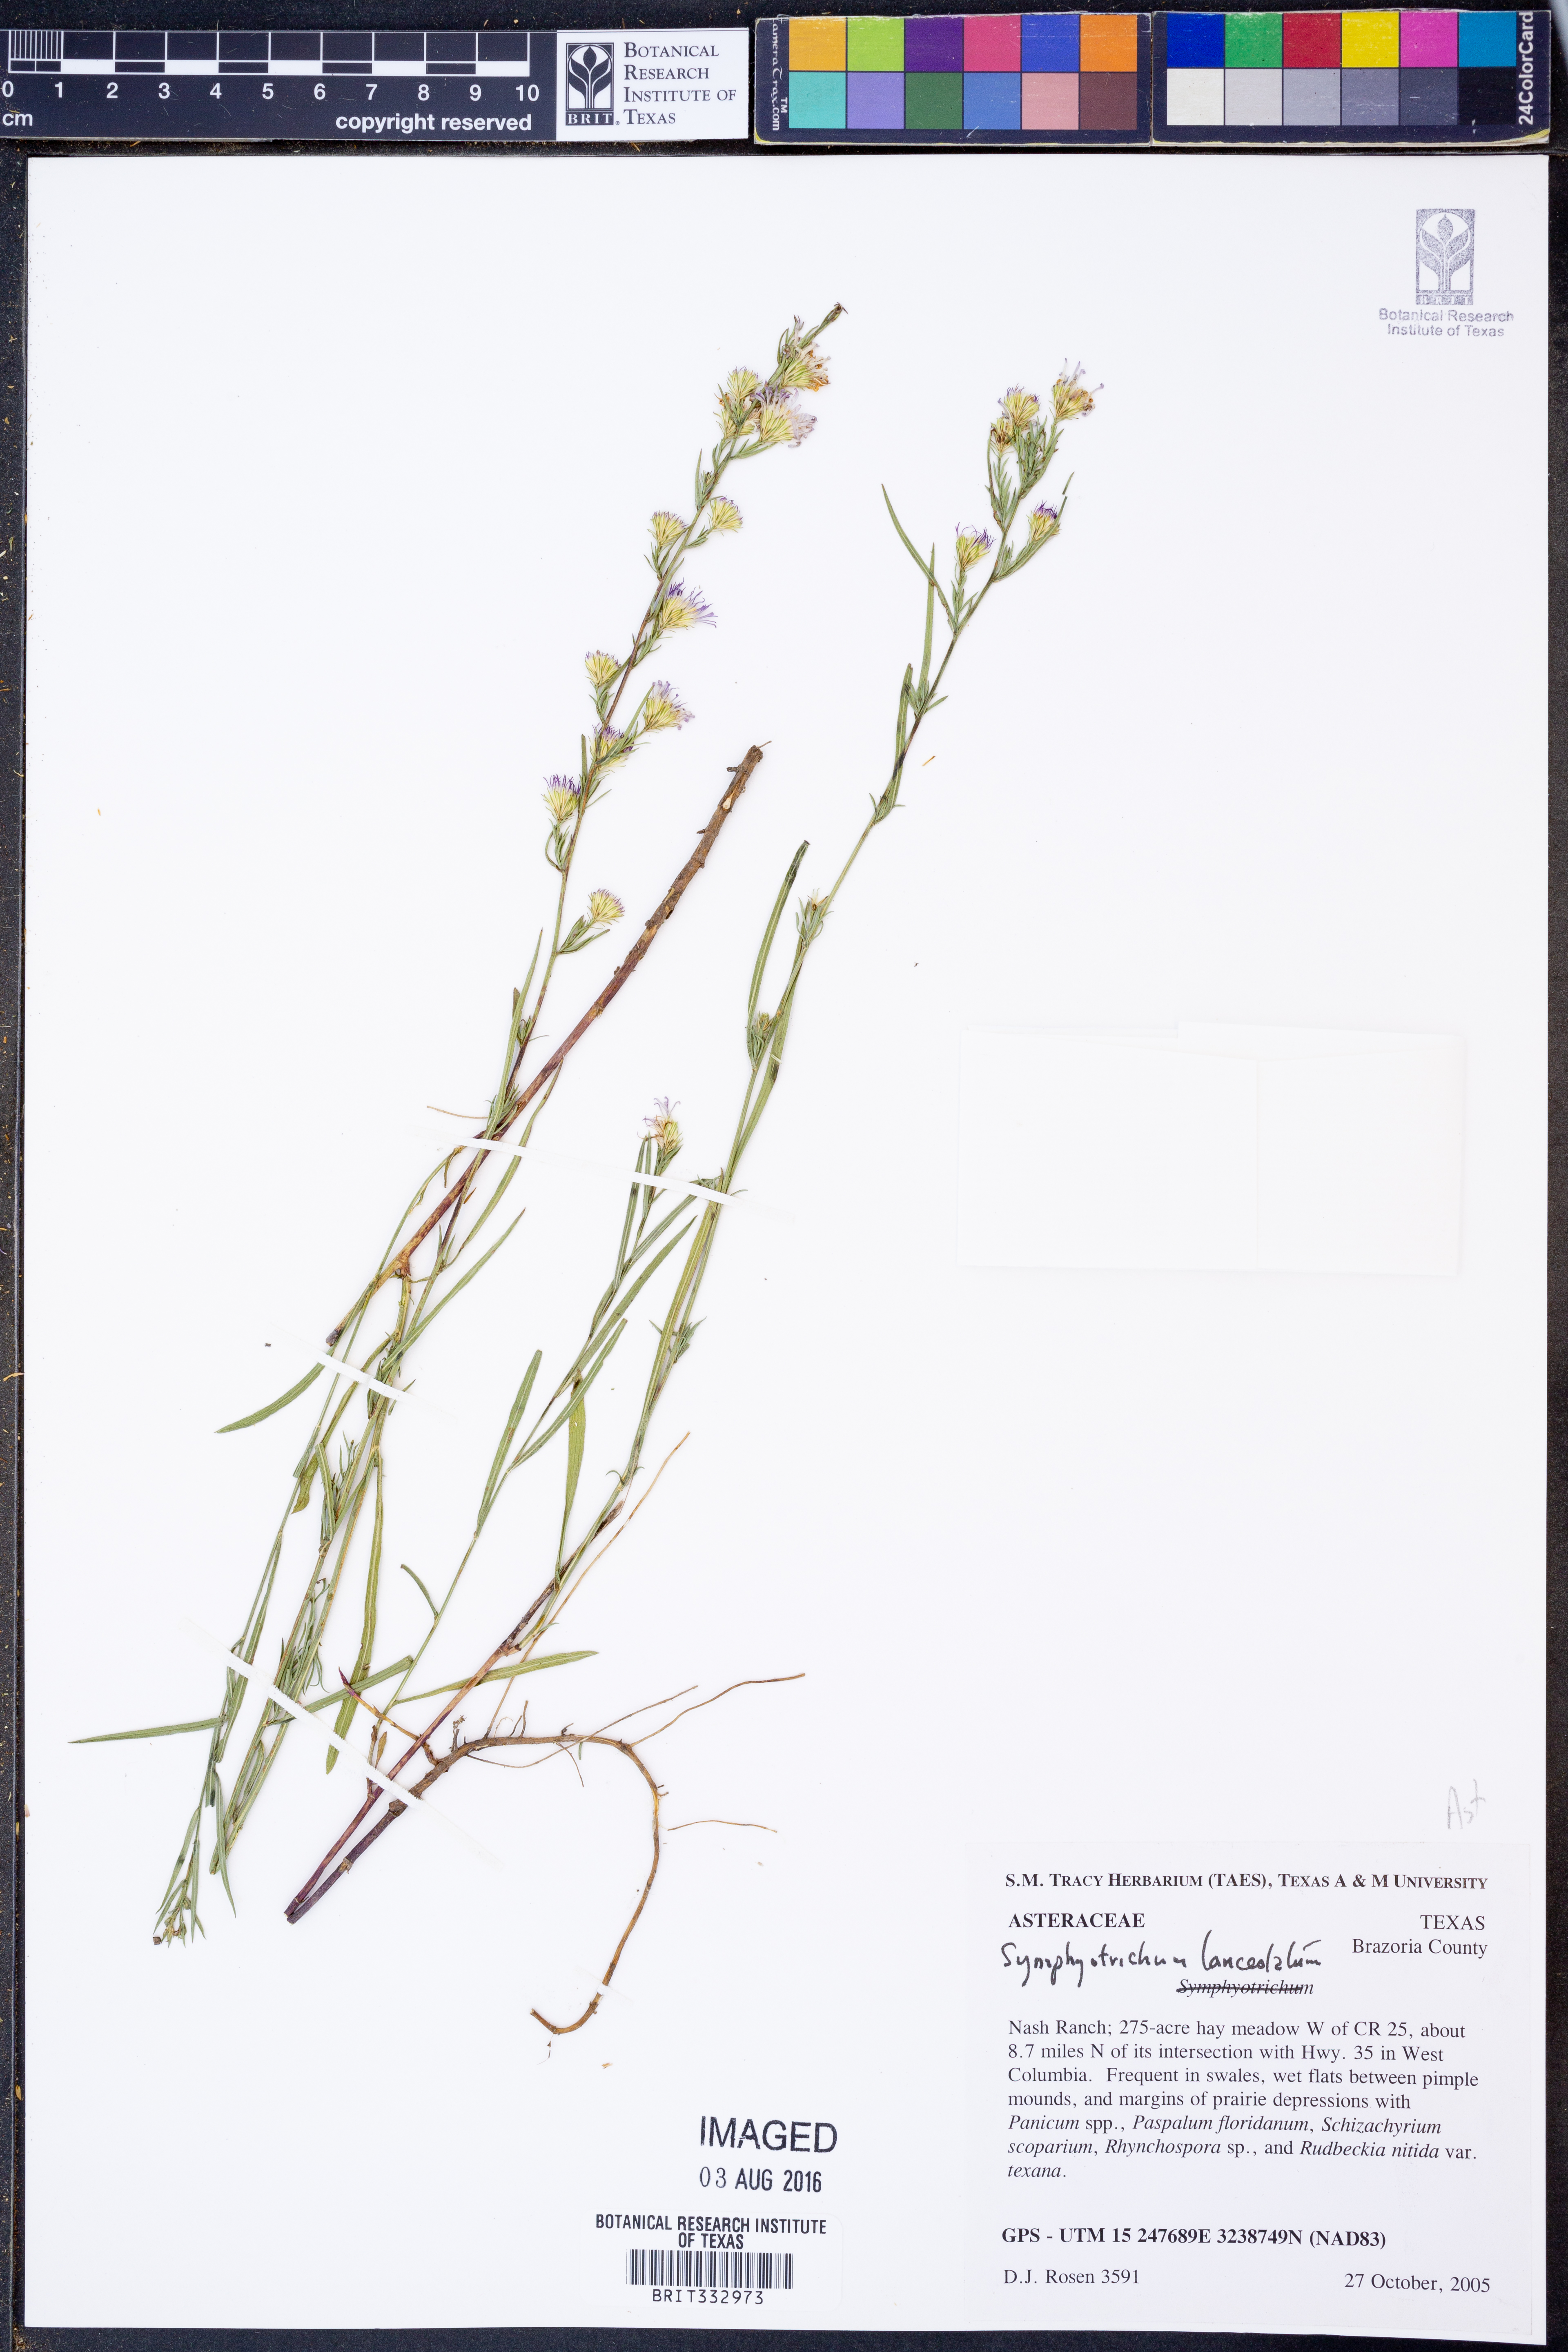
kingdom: Plantae
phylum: Tracheophyta
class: Magnoliopsida
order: Asterales
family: Asteraceae
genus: Symphyotrichum
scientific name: Symphyotrichum lanceolatum
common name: Panicled aster
